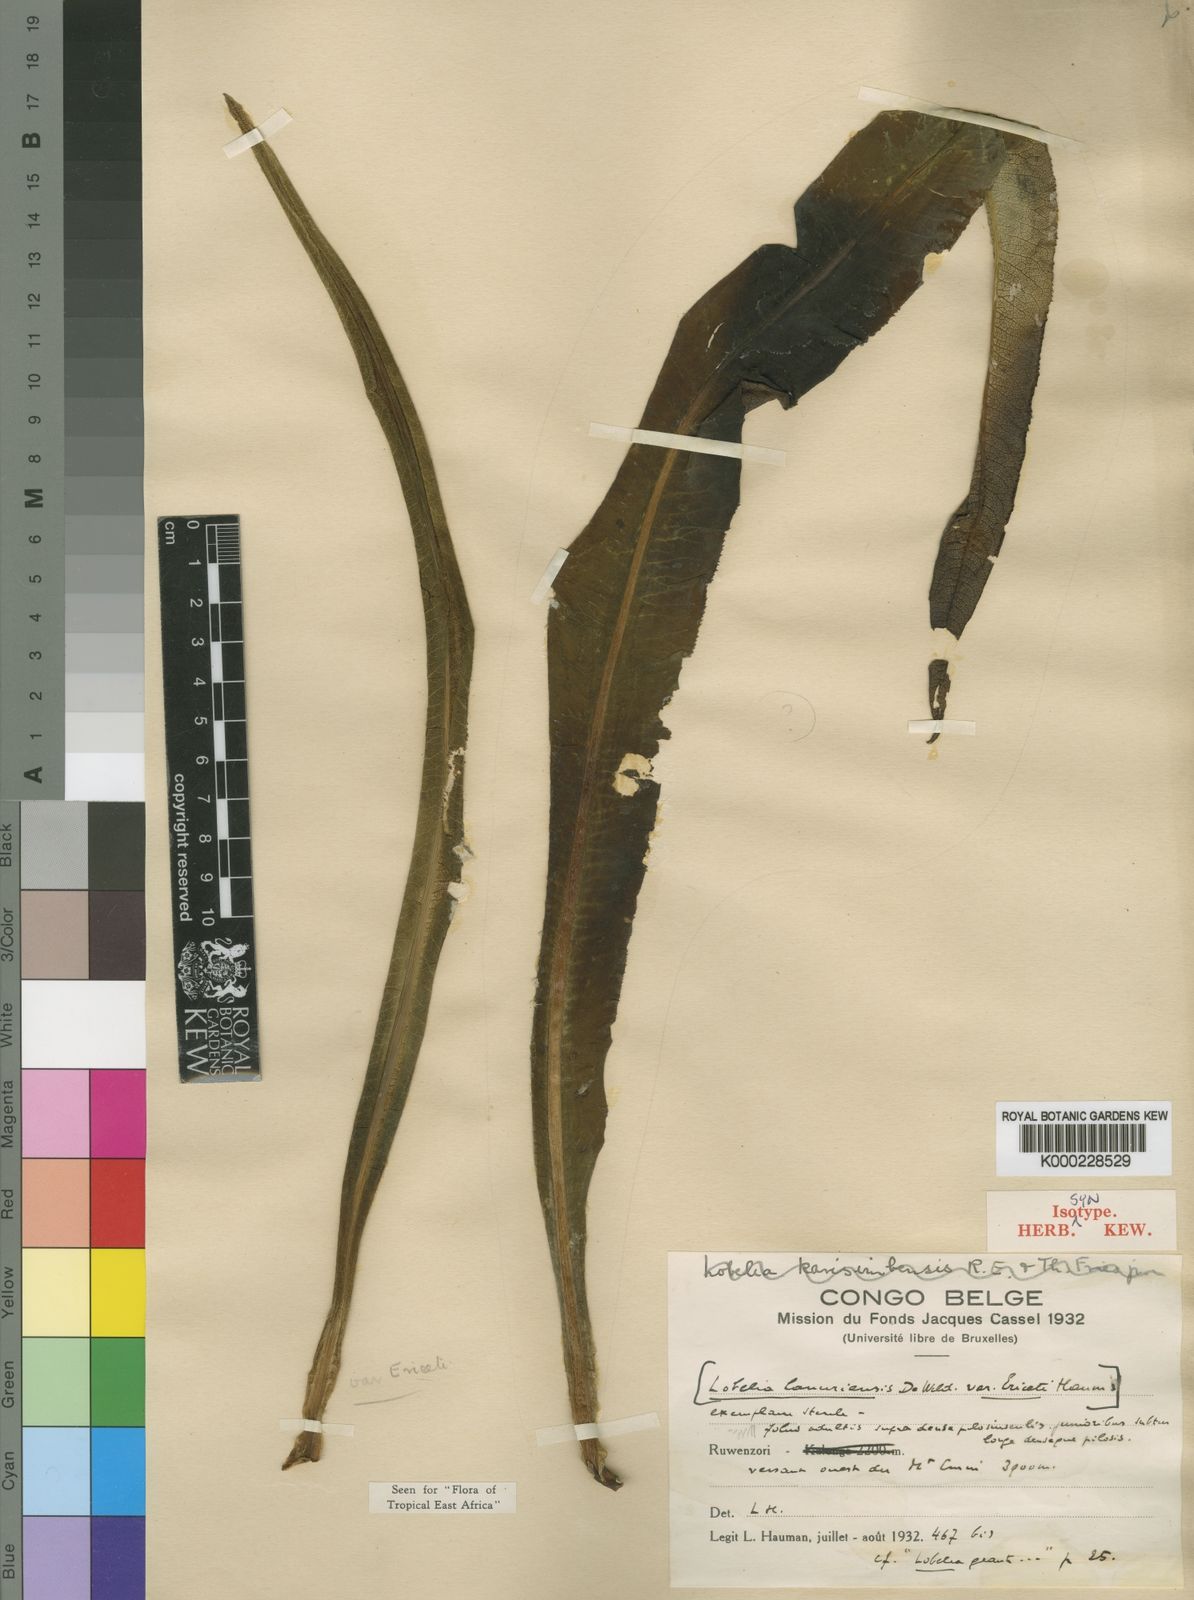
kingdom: Plantae
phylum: Tracheophyta
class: Magnoliopsida
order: Asterales
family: Campanulaceae
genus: Lobelia
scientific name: Lobelia stuhlmannii
